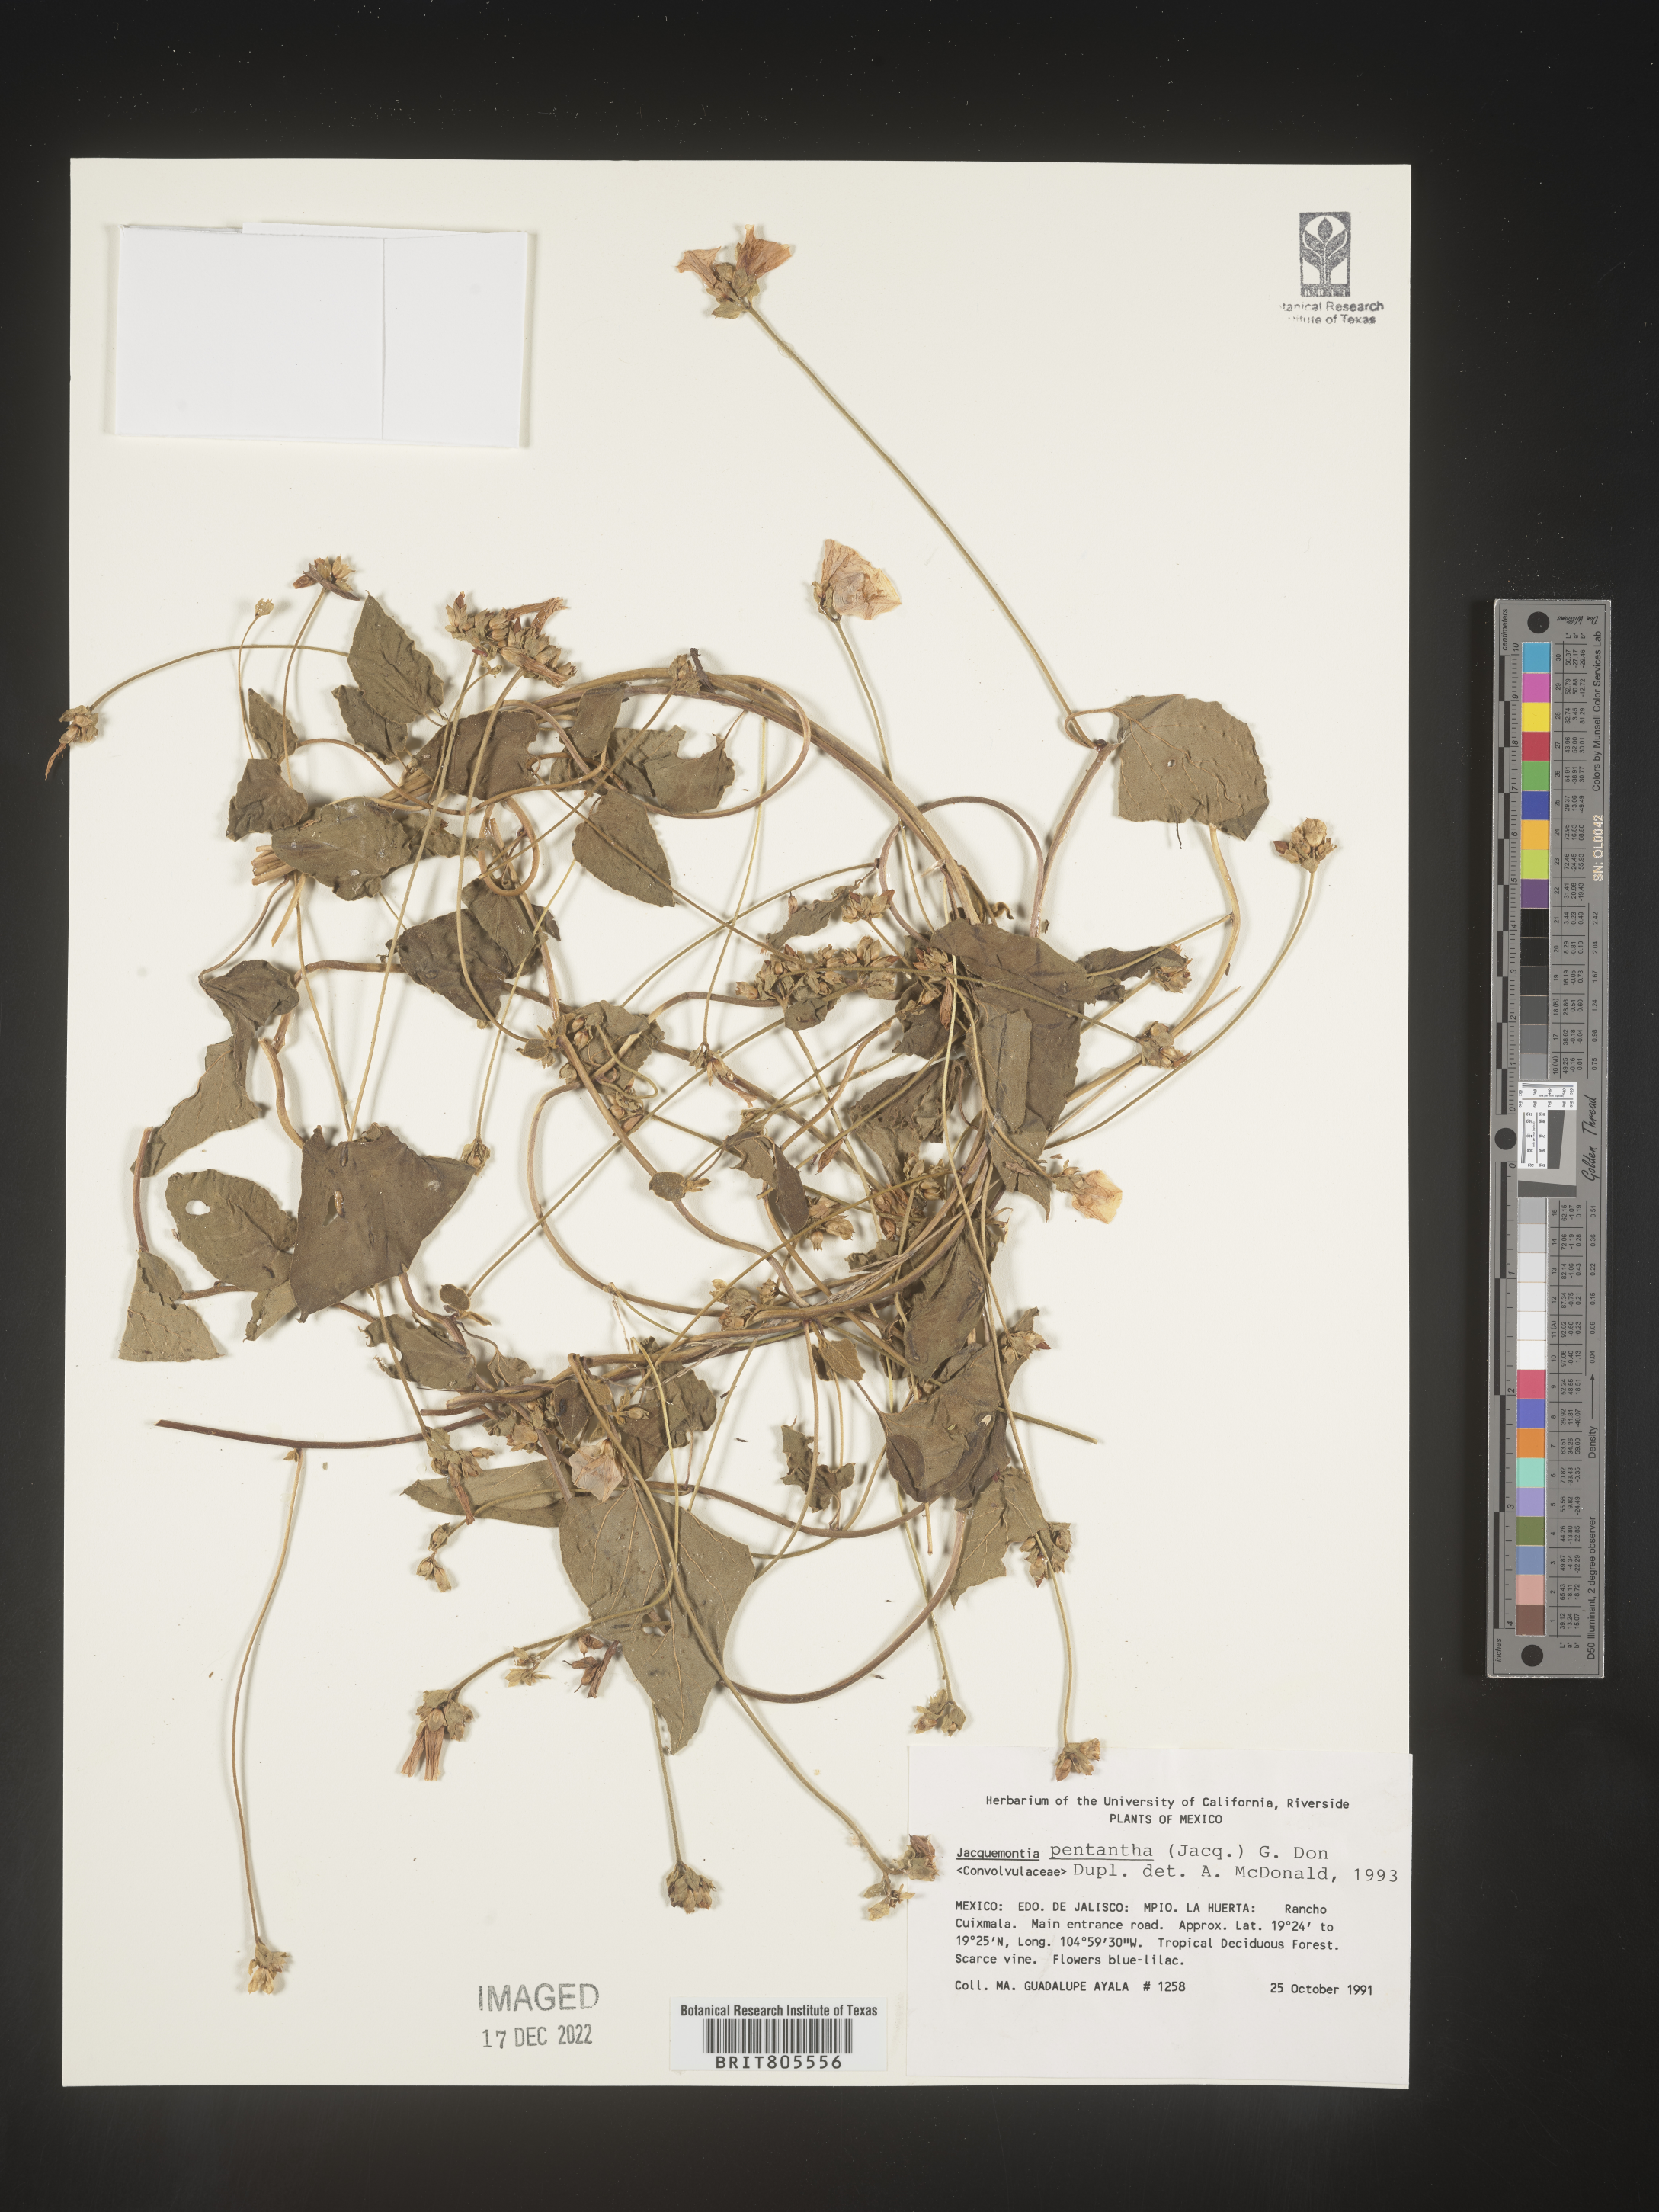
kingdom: Plantae
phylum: Tracheophyta
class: Magnoliopsida
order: Solanales
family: Convolvulaceae
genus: Jacquemontia
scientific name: Jacquemontia
